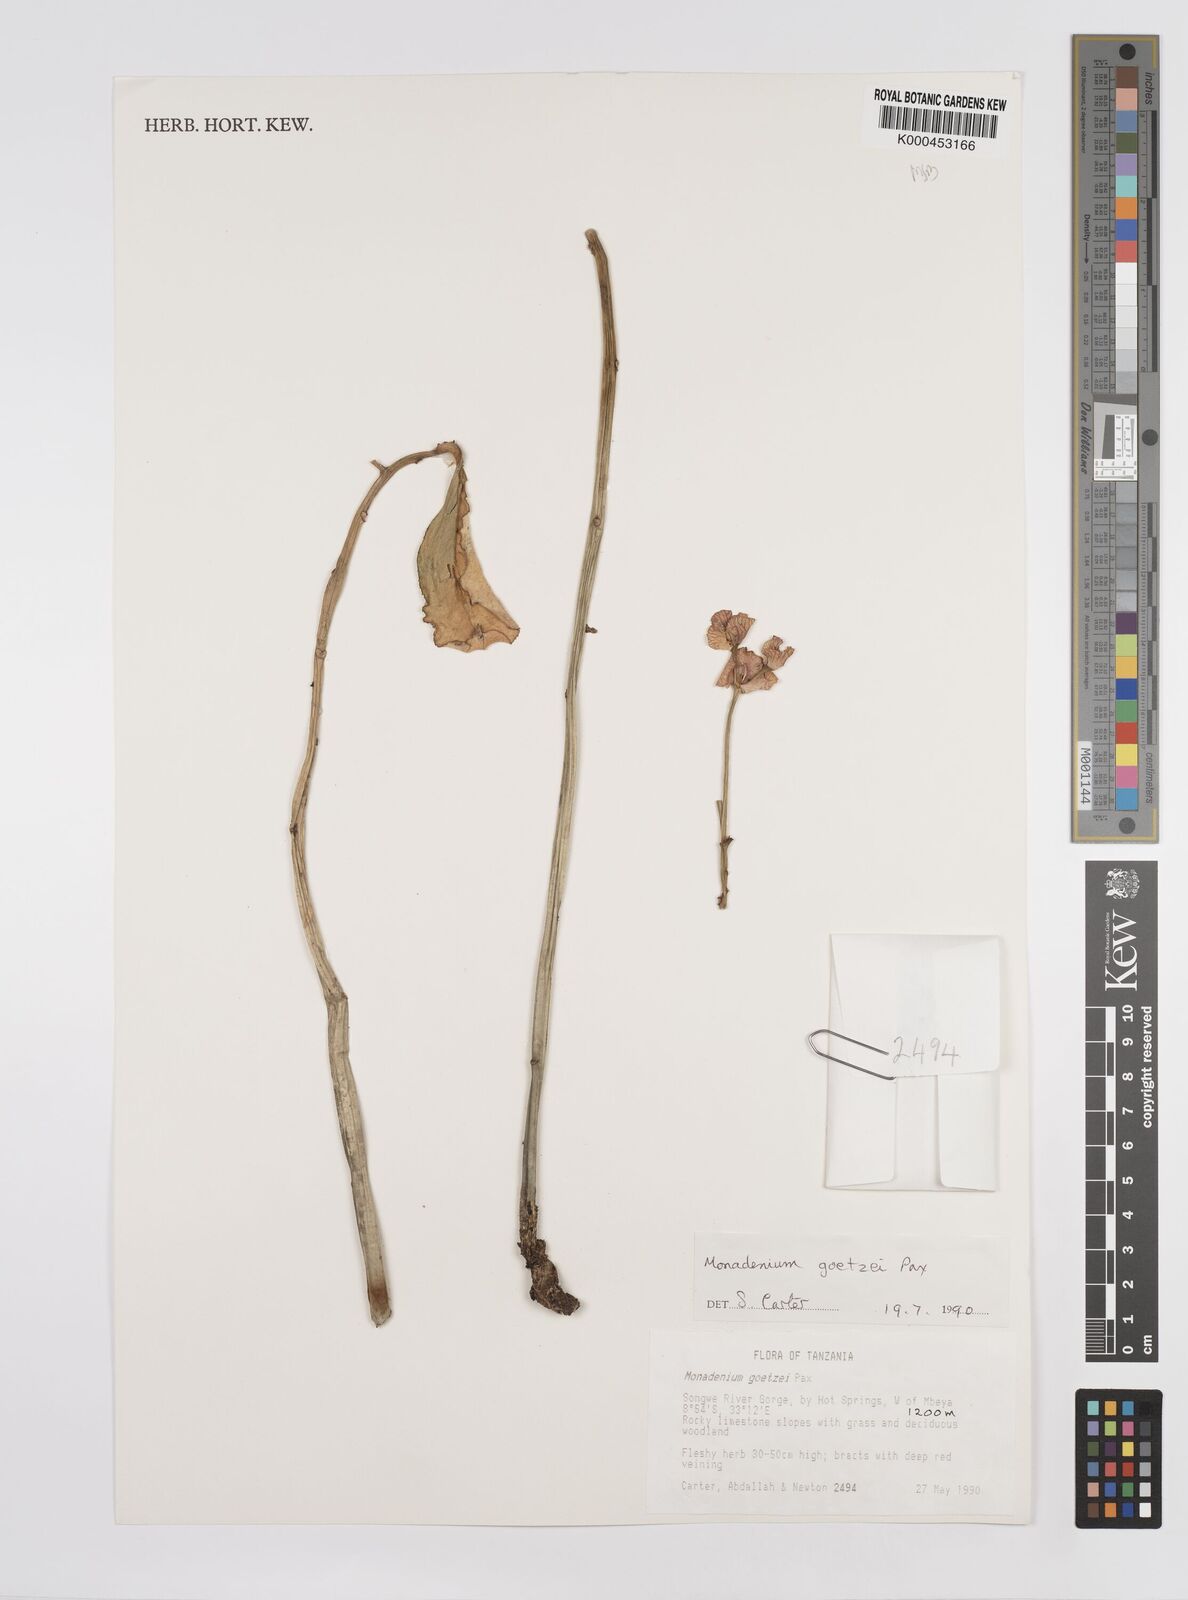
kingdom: Plantae
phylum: Tracheophyta
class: Magnoliopsida
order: Malpighiales
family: Euphorbiaceae
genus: Euphorbia
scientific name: Euphorbia neogoetzei
